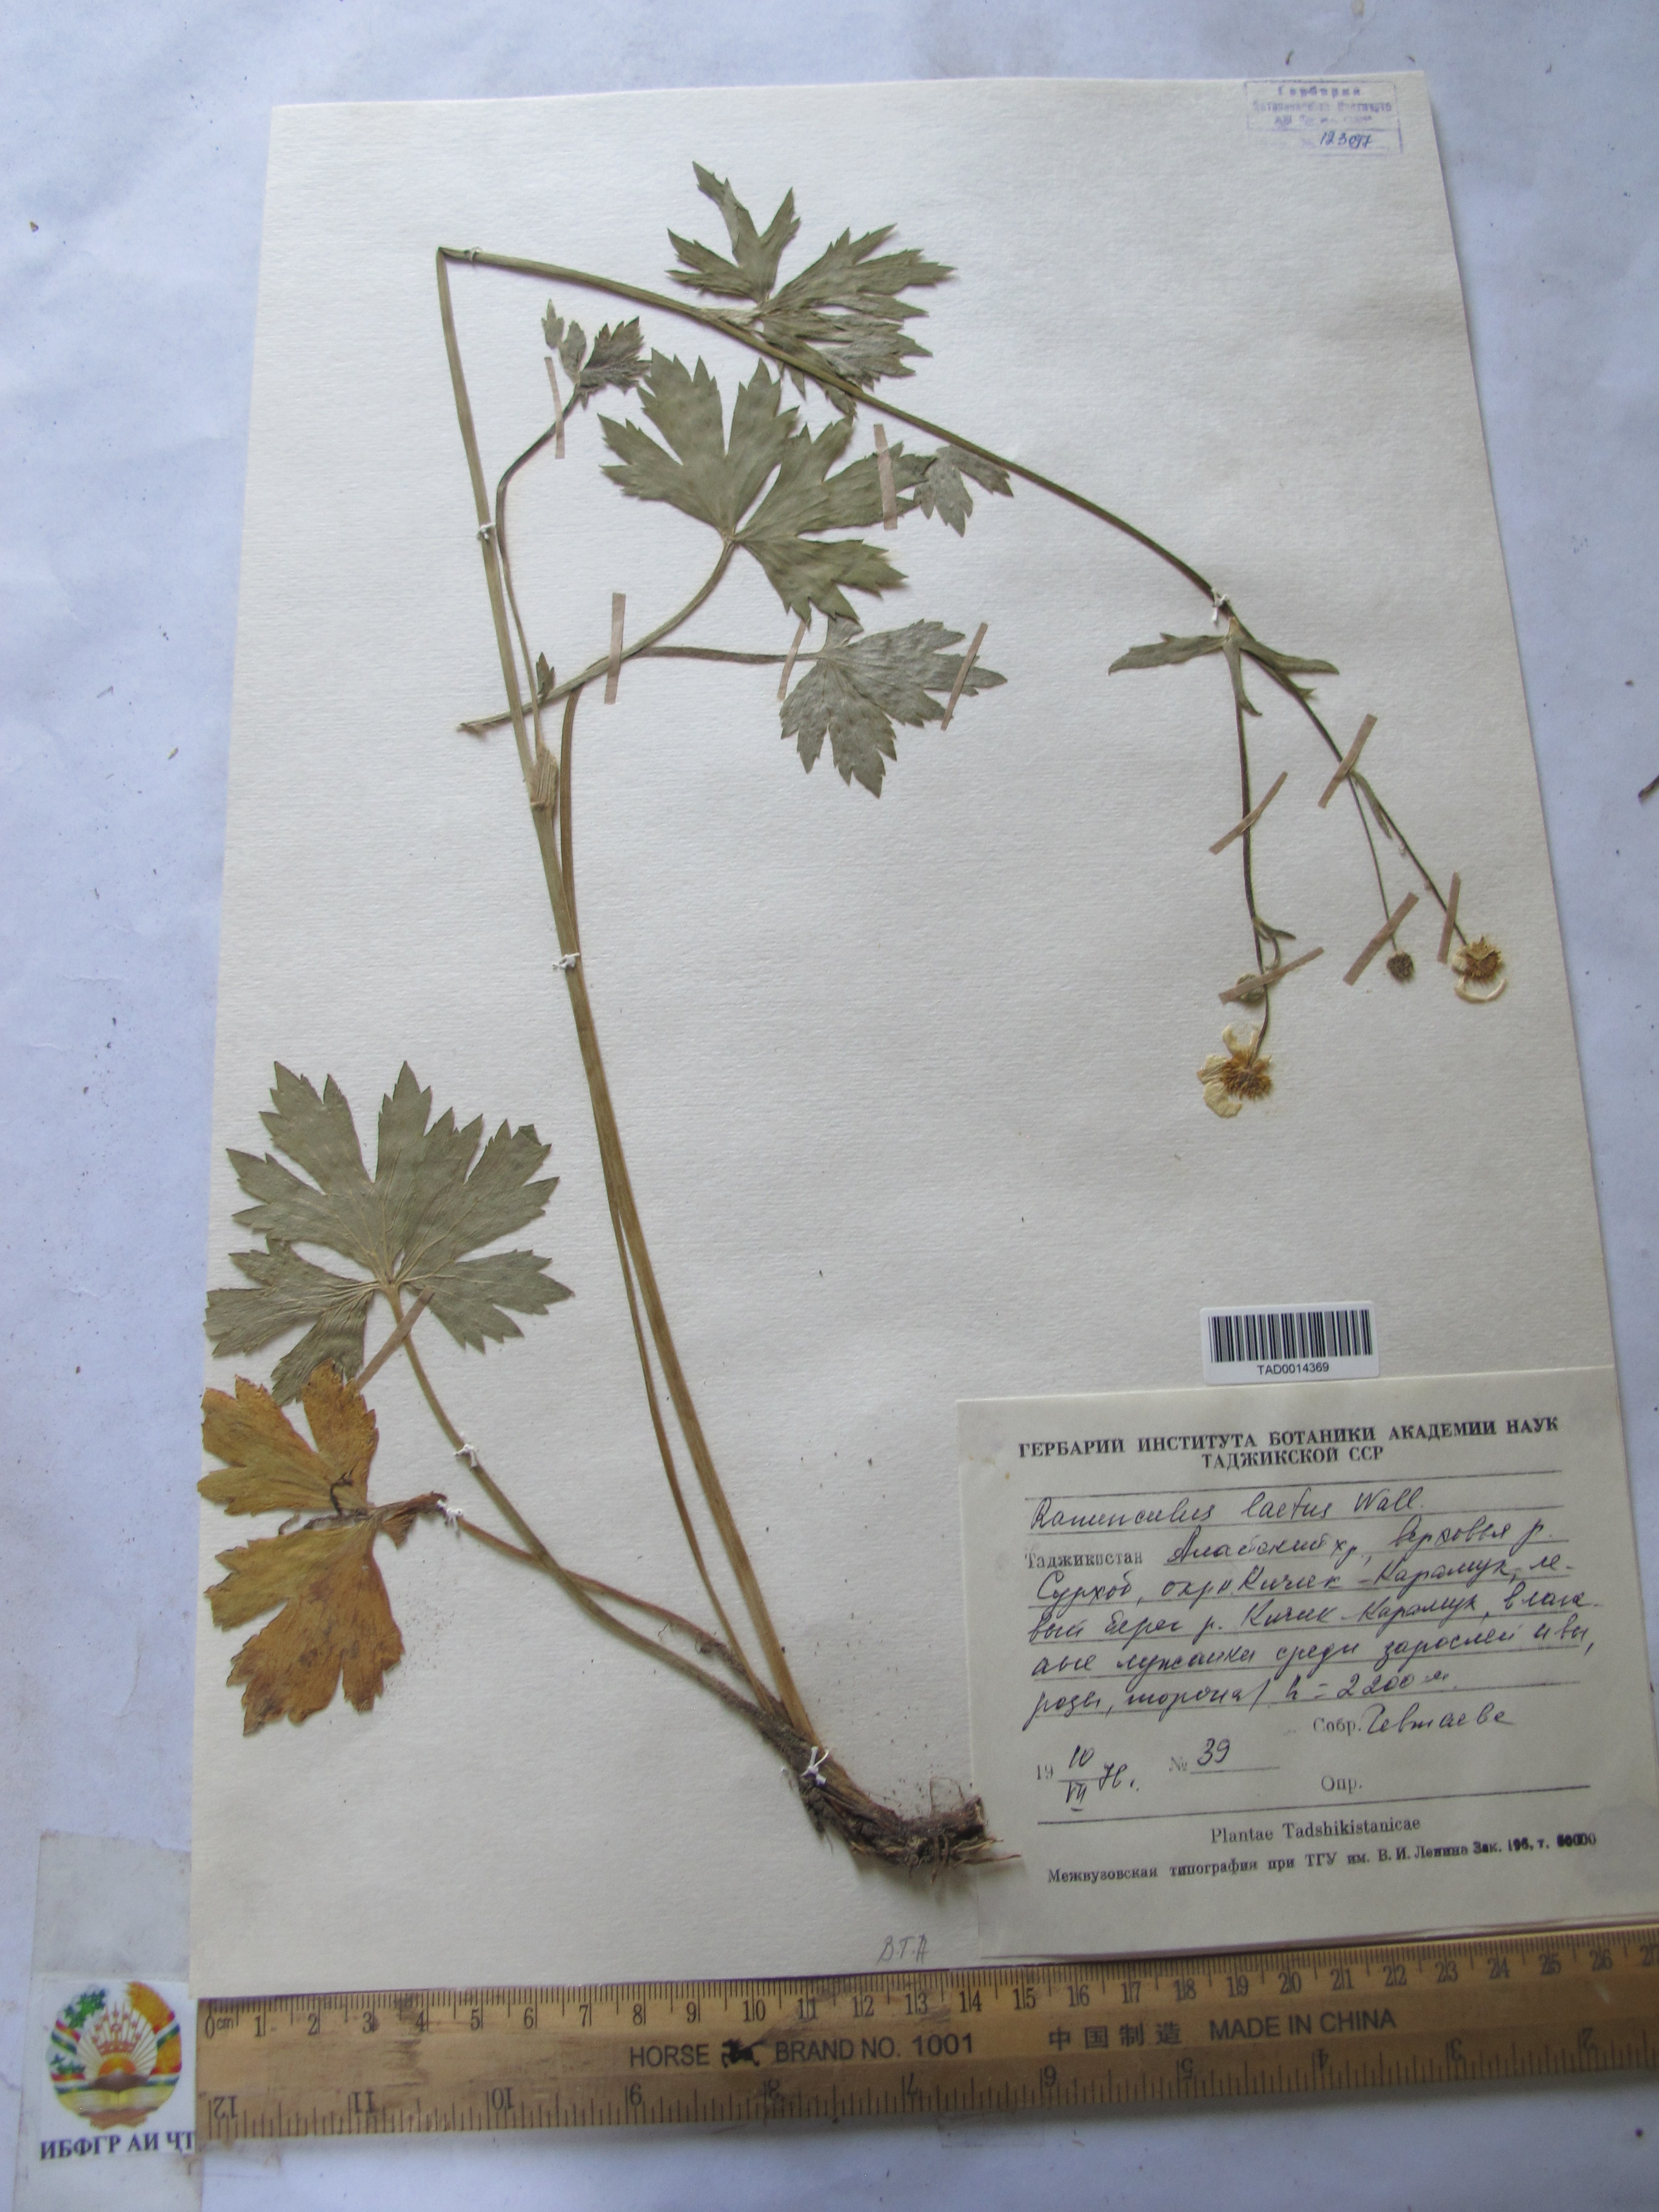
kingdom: Plantae
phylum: Tracheophyta
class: Magnoliopsida
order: Ranunculales
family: Ranunculaceae
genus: Ranunculus
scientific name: Ranunculus distans
